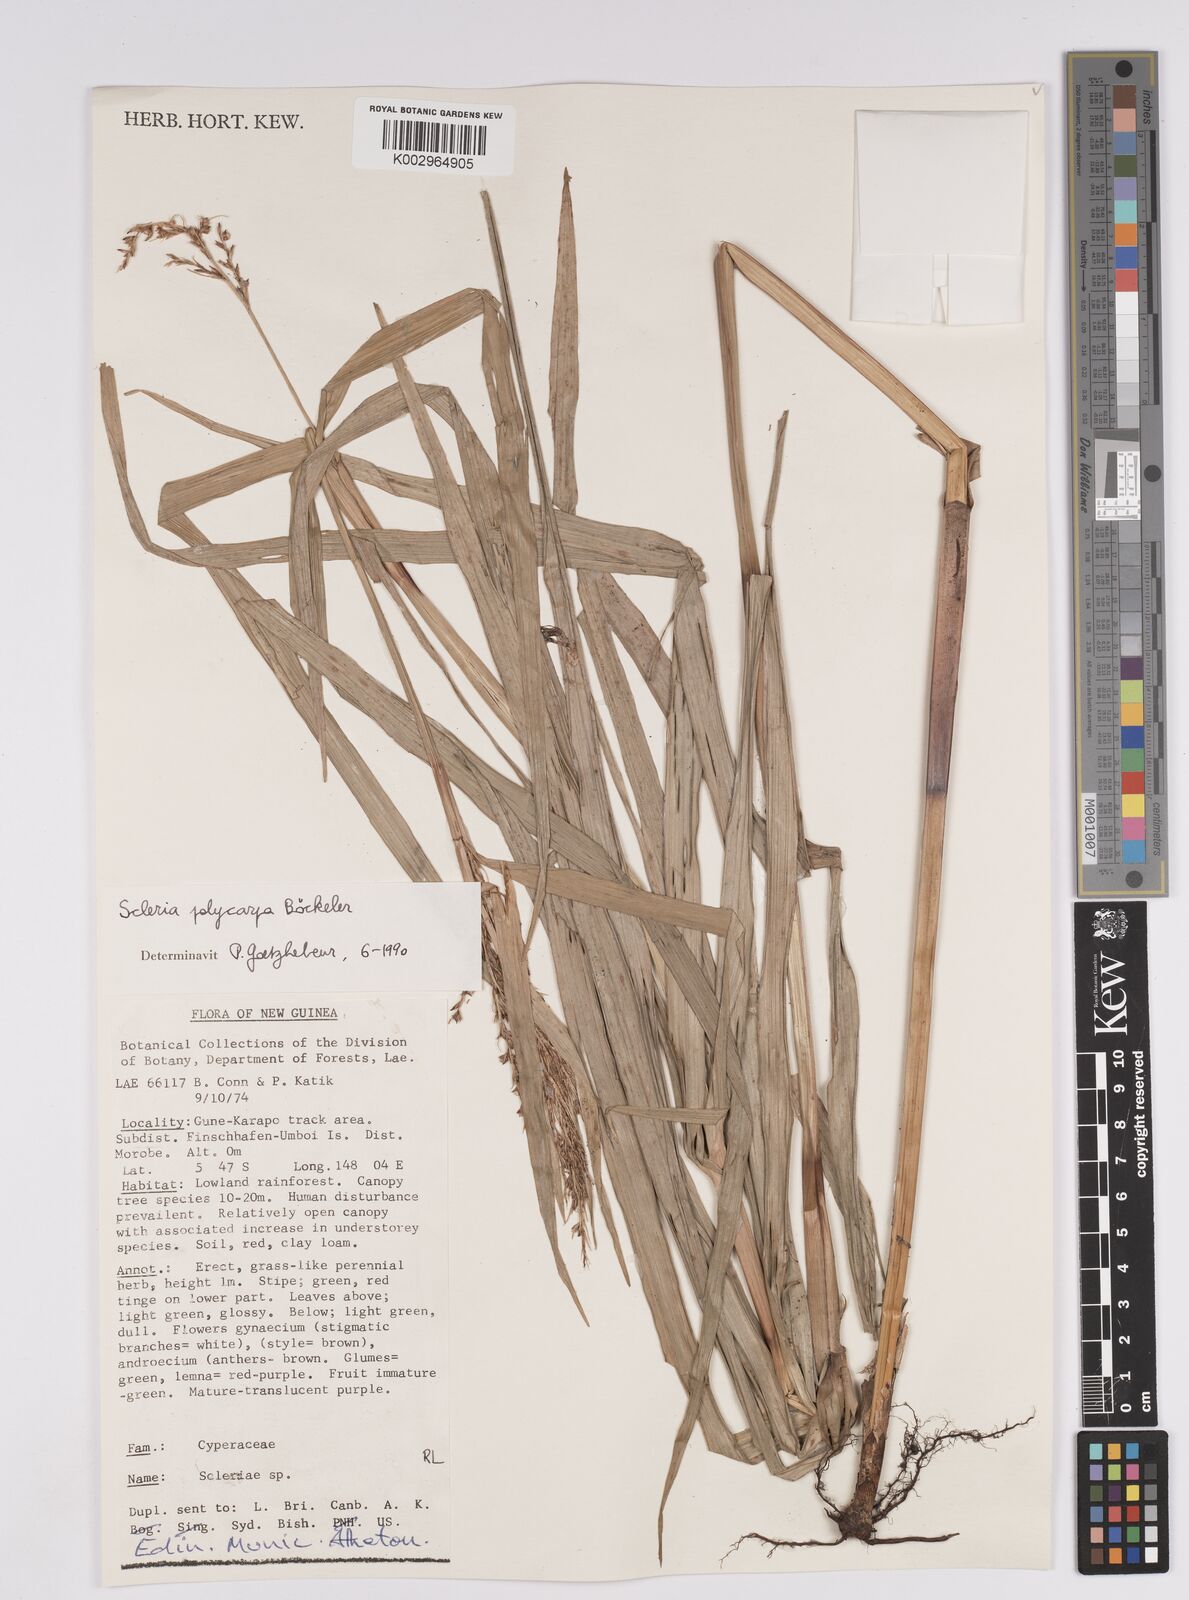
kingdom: Plantae
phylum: Tracheophyta
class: Liliopsida
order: Poales
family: Cyperaceae
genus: Scleria
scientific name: Scleria polycarpa
